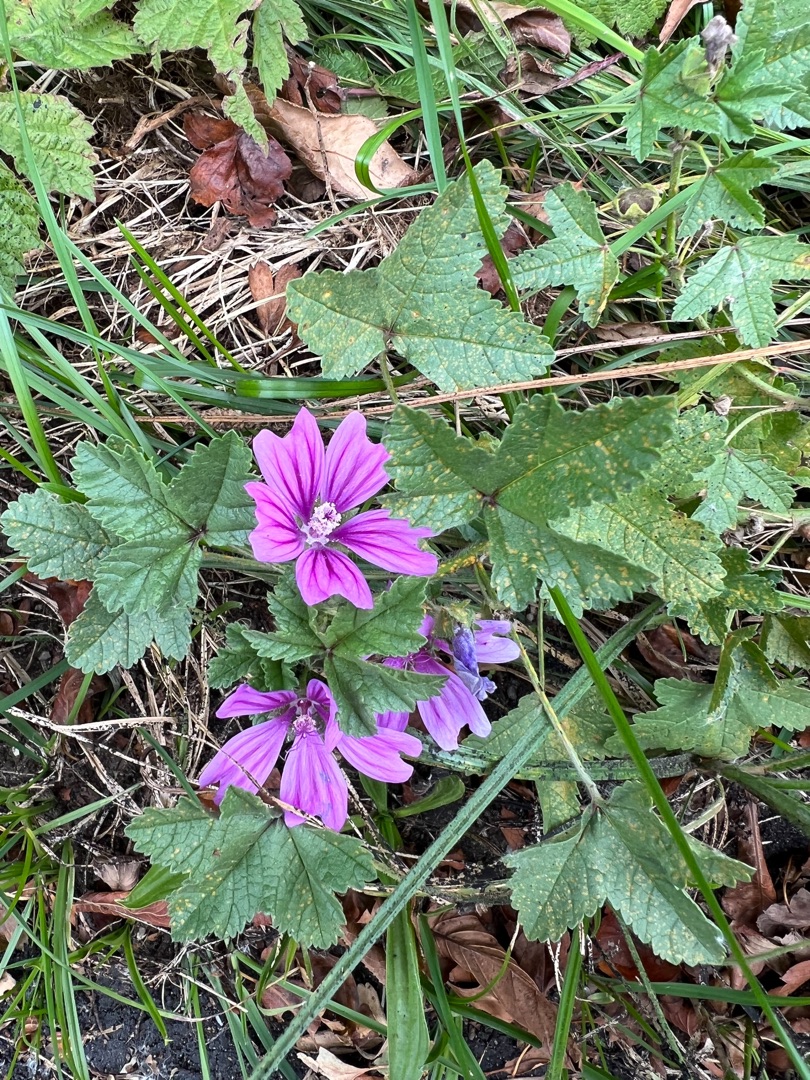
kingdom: Plantae
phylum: Tracheophyta
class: Magnoliopsida
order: Malvales
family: Malvaceae
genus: Malva
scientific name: Malva sylvestris
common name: Almindelig katost
